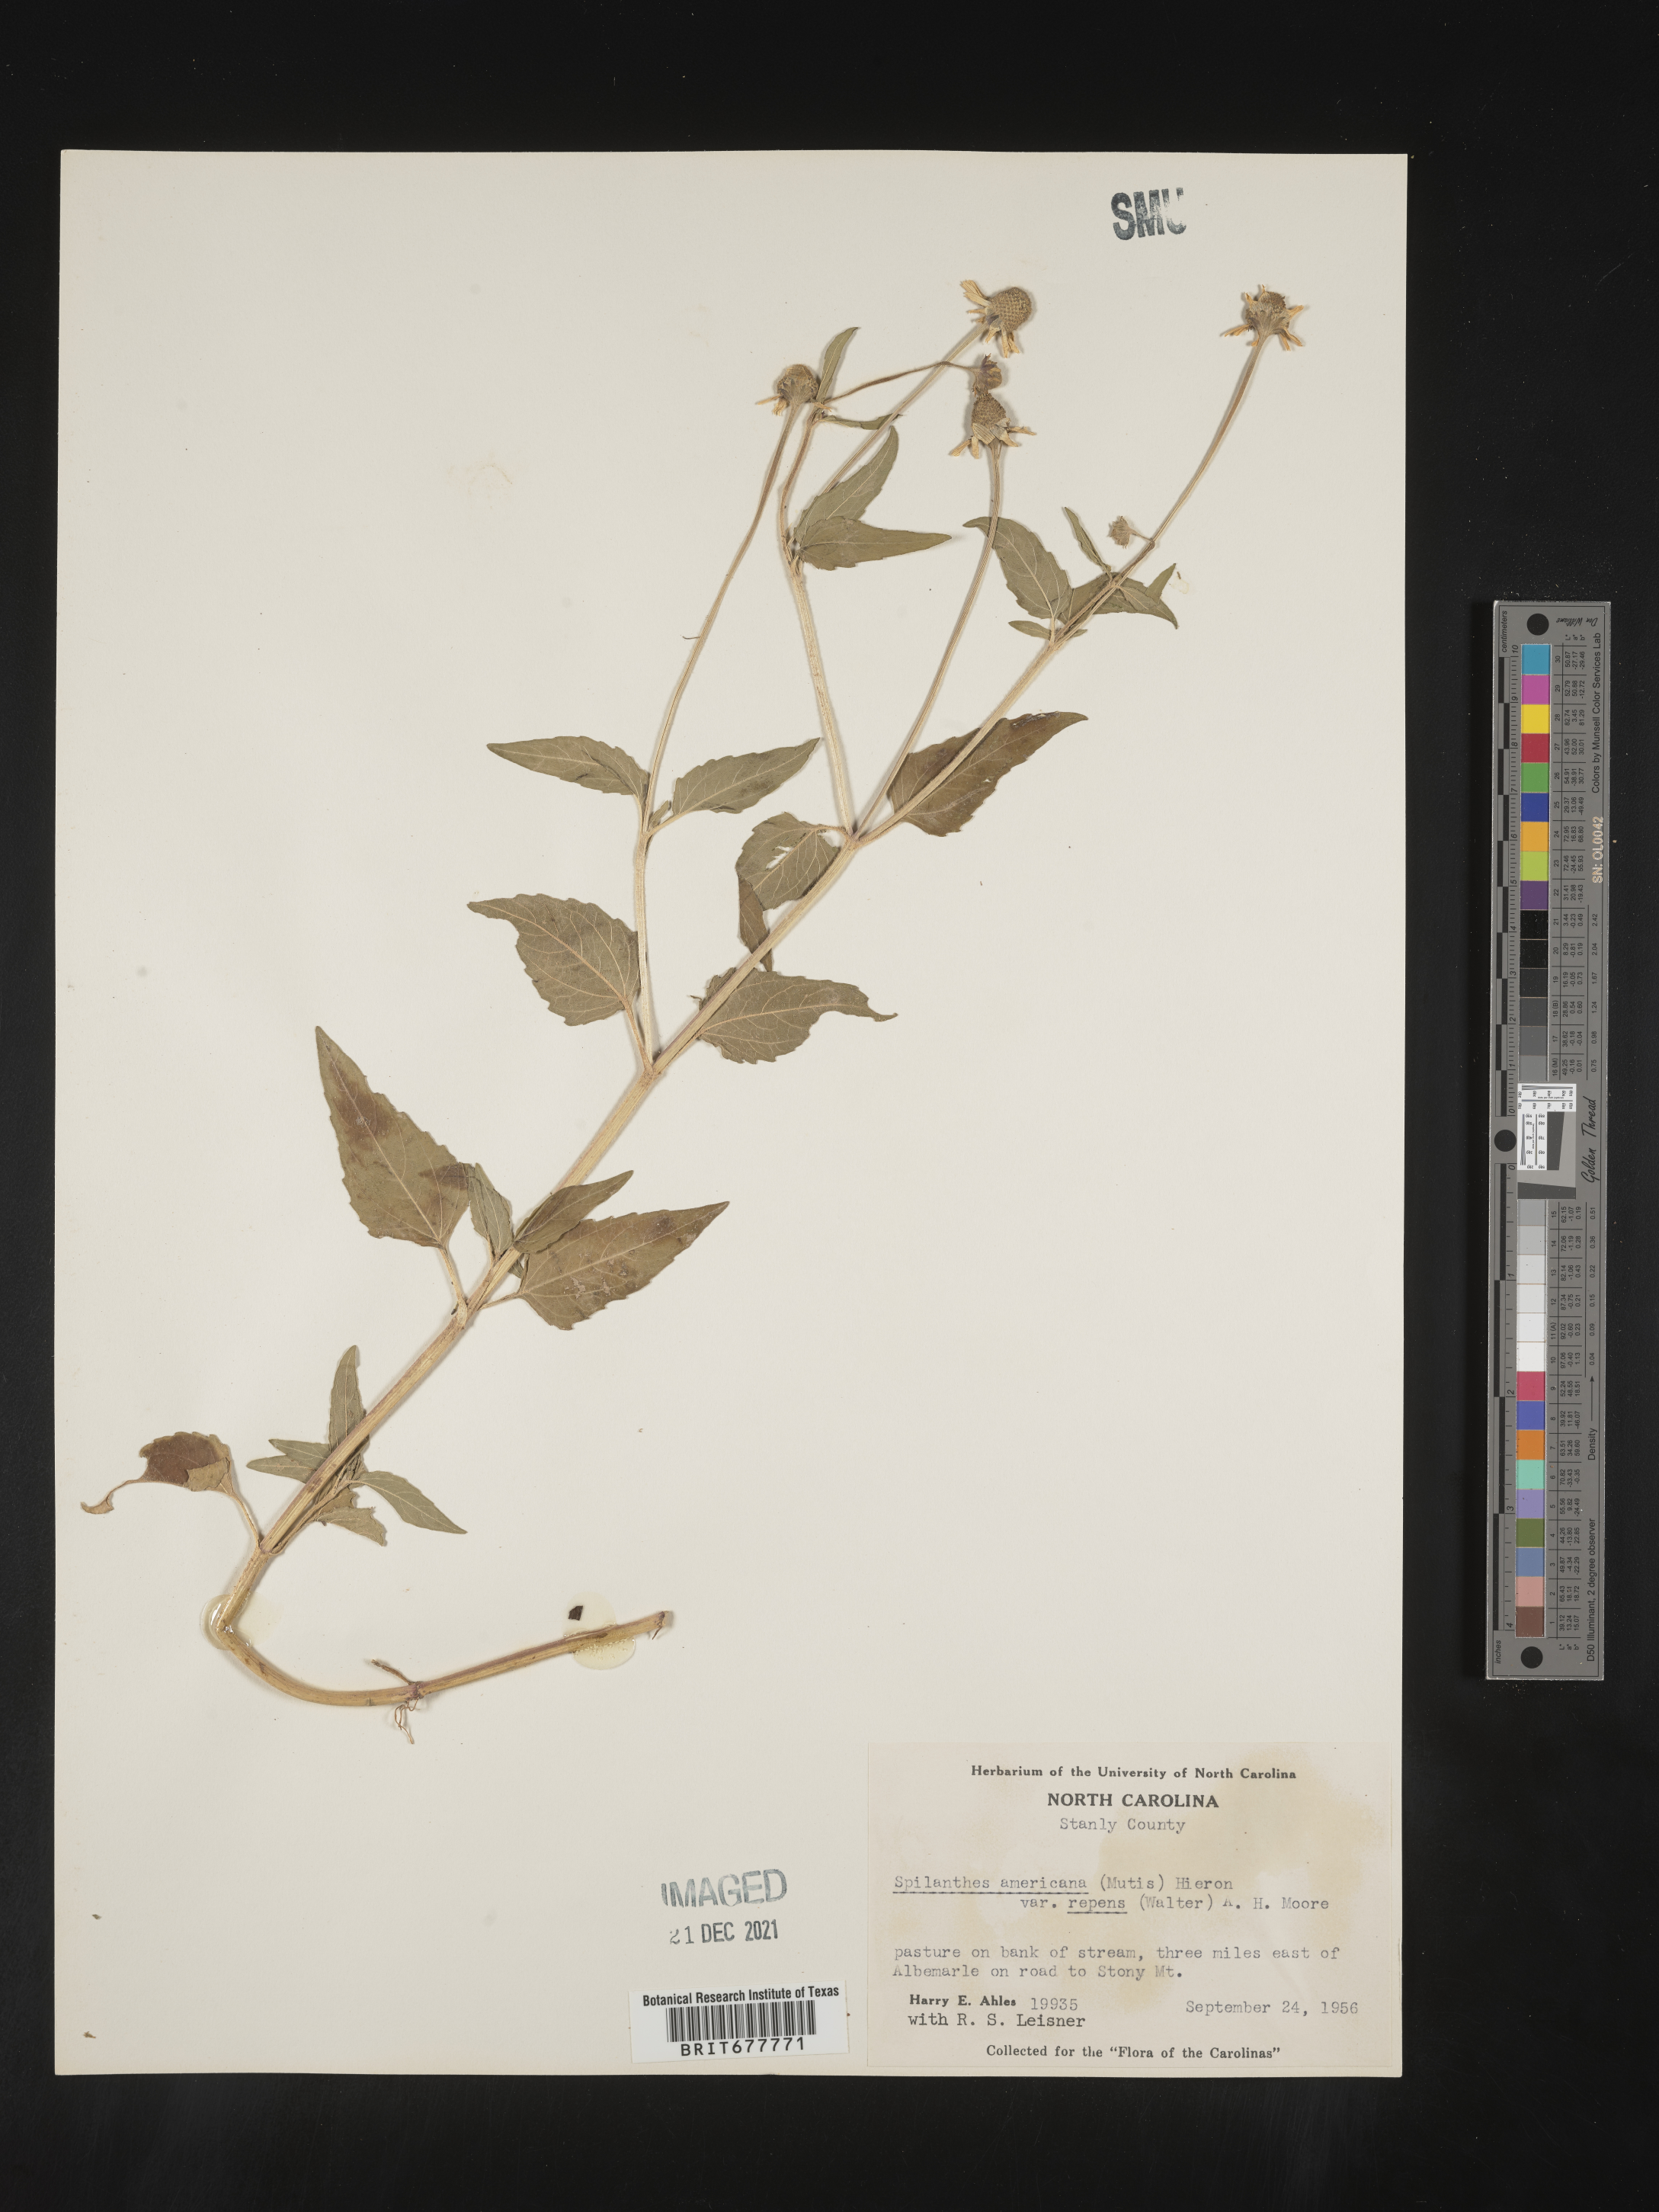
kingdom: Plantae
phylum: Tracheophyta
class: Magnoliopsida
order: Asterales
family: Asteraceae
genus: Spilanthes
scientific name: Spilanthes
